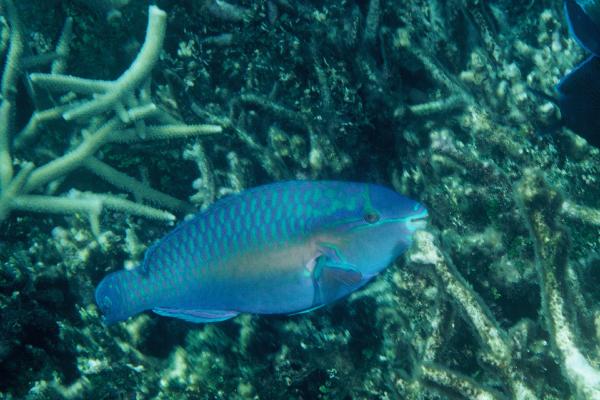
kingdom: Animalia
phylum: Chordata
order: Perciformes
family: Scaridae
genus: Scarus
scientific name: Scarus chameleon
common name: Chameleon parrotfish
